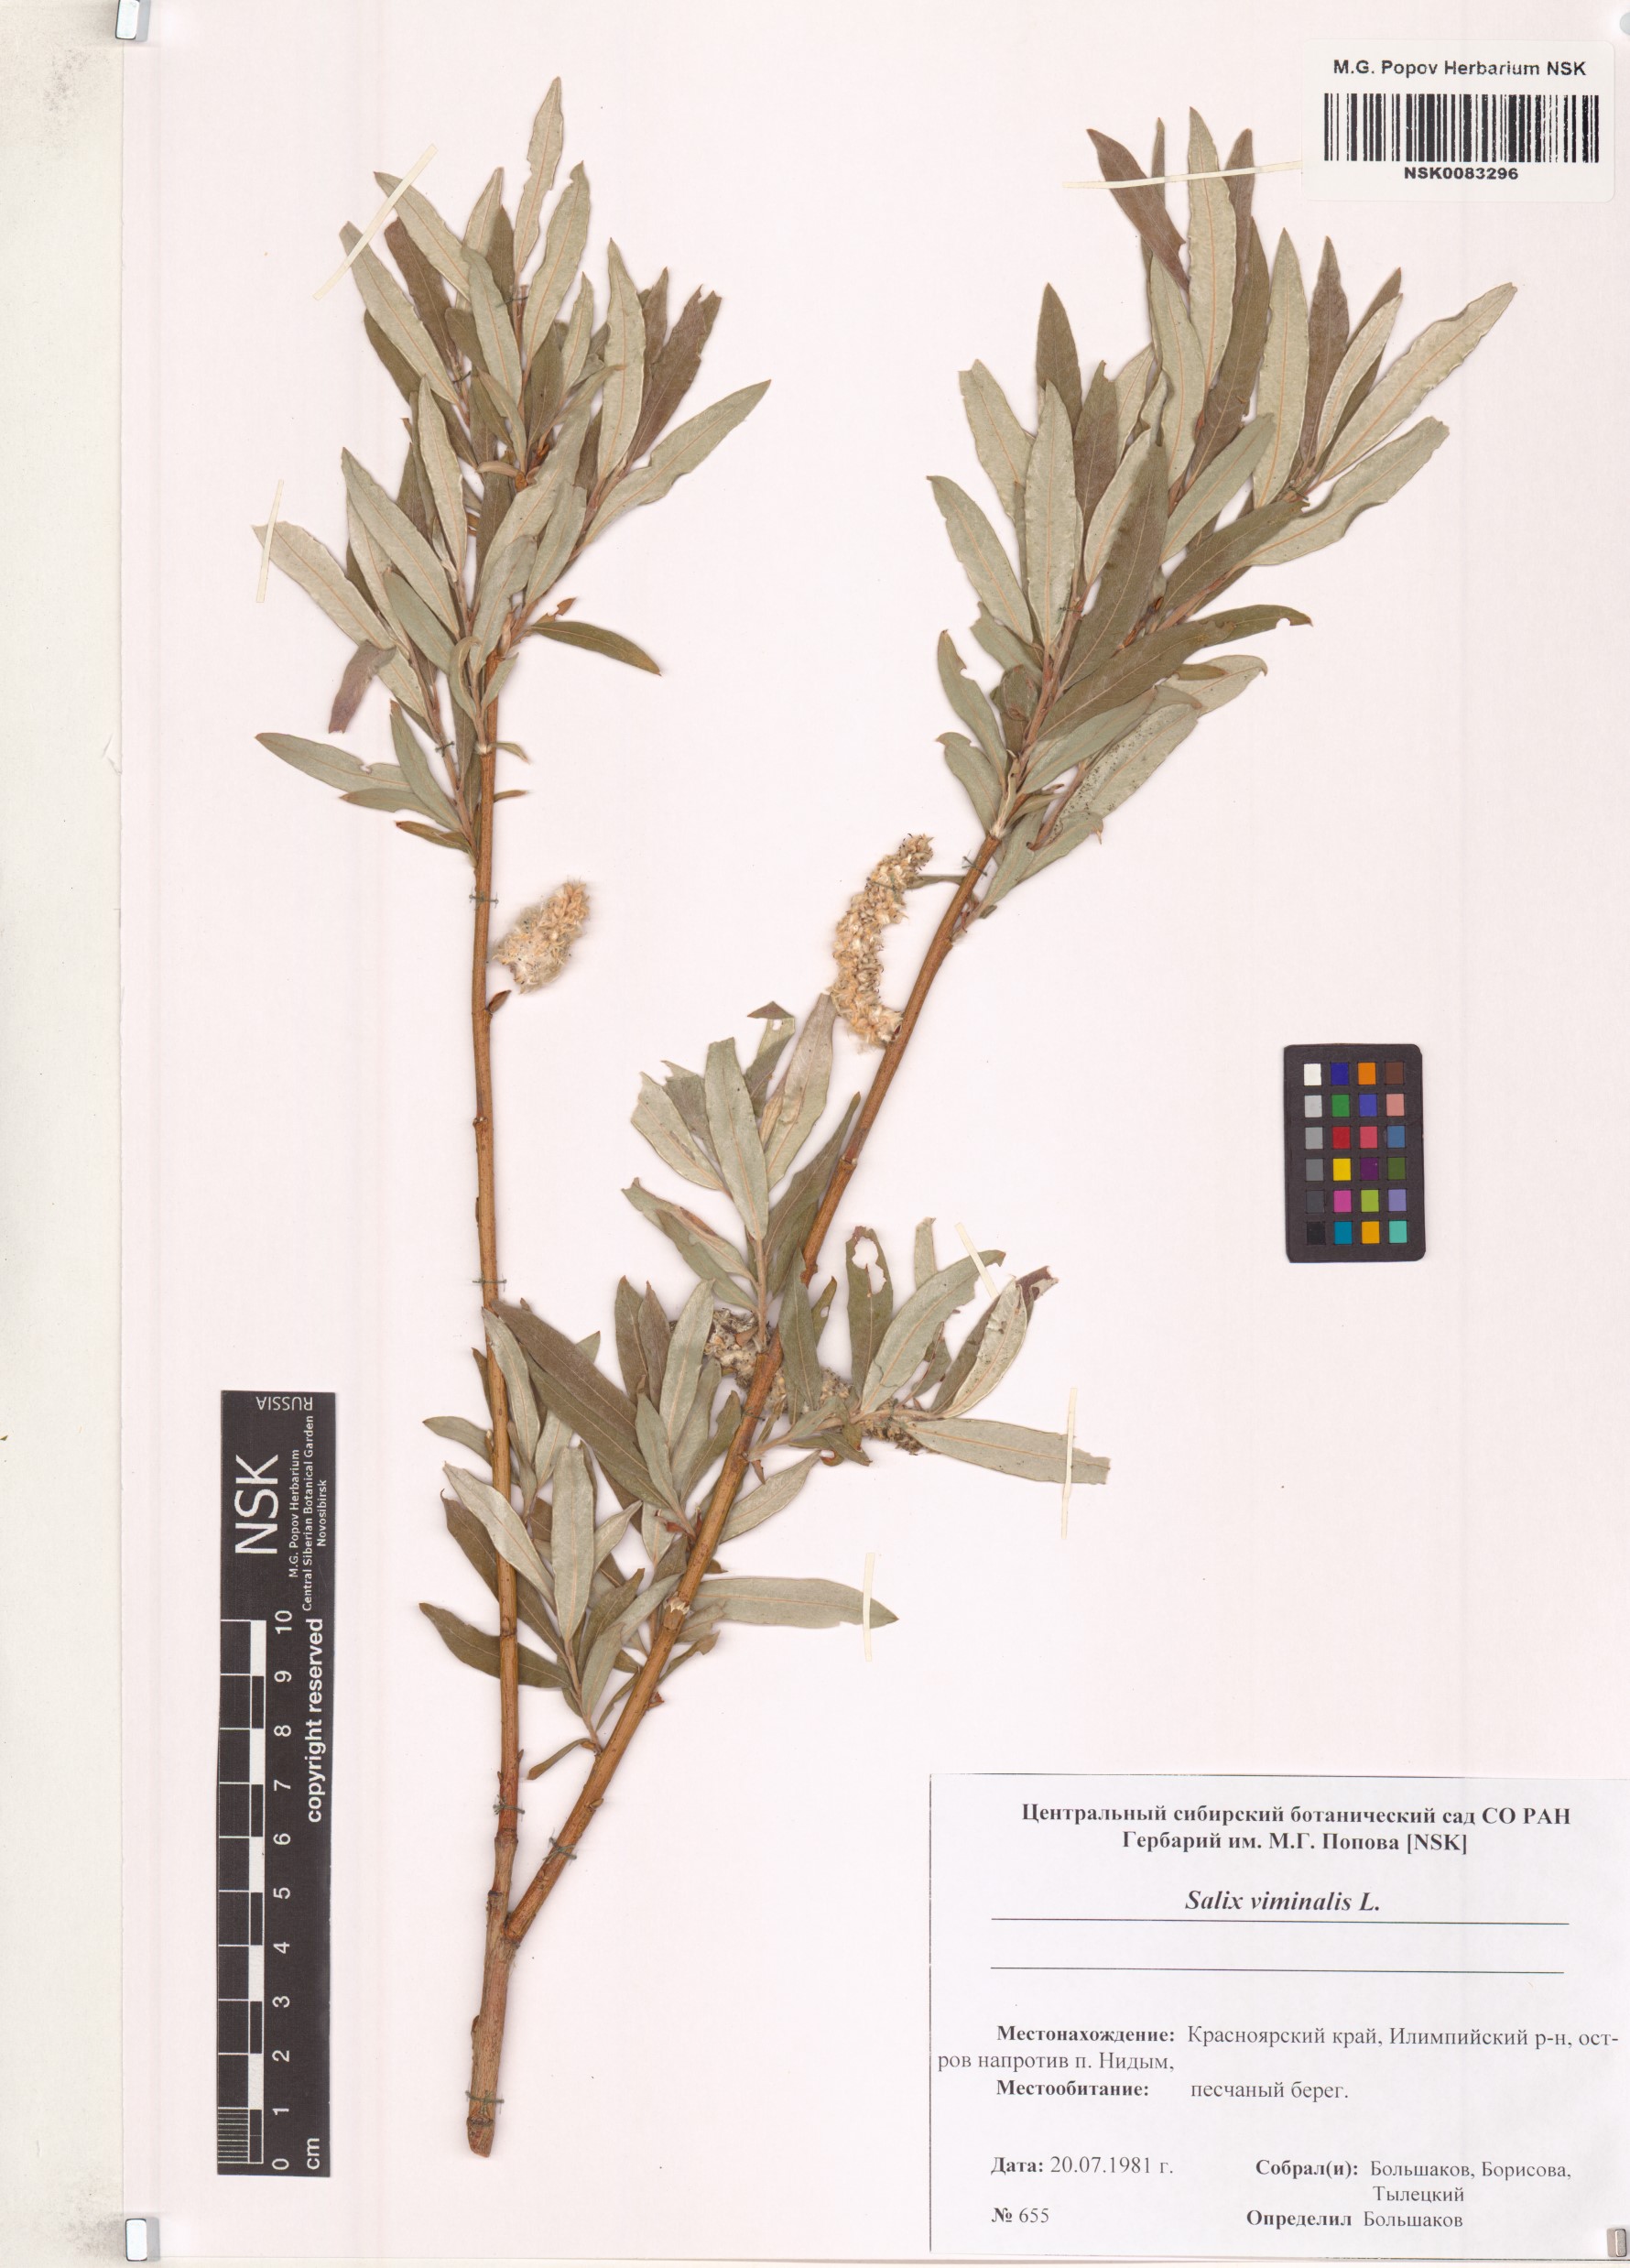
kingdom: Plantae
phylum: Tracheophyta
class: Magnoliopsida
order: Malpighiales
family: Salicaceae
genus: Salix
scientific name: Salix viminalis
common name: Osier
